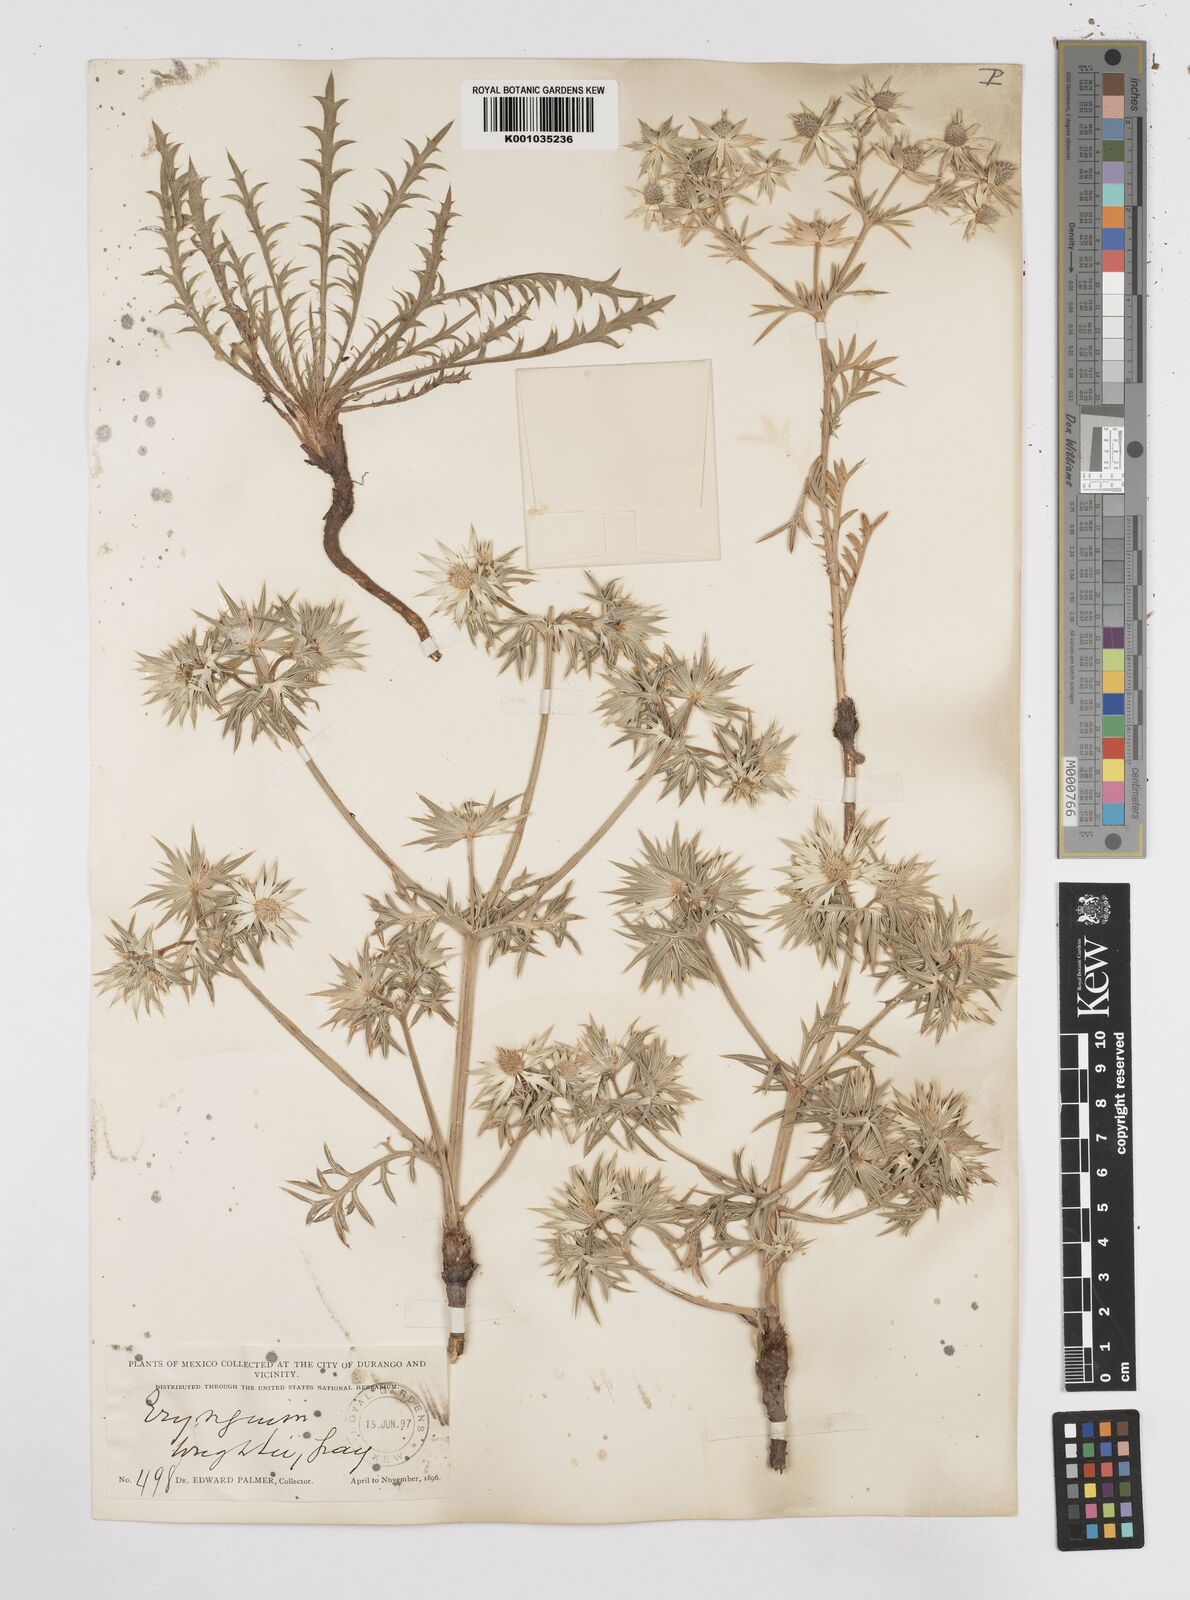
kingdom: Plantae
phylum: Tracheophyta
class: Magnoliopsida
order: Apiales
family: Apiaceae
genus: Eryngium
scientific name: Eryngium heterophyllum
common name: Mexican thistle
